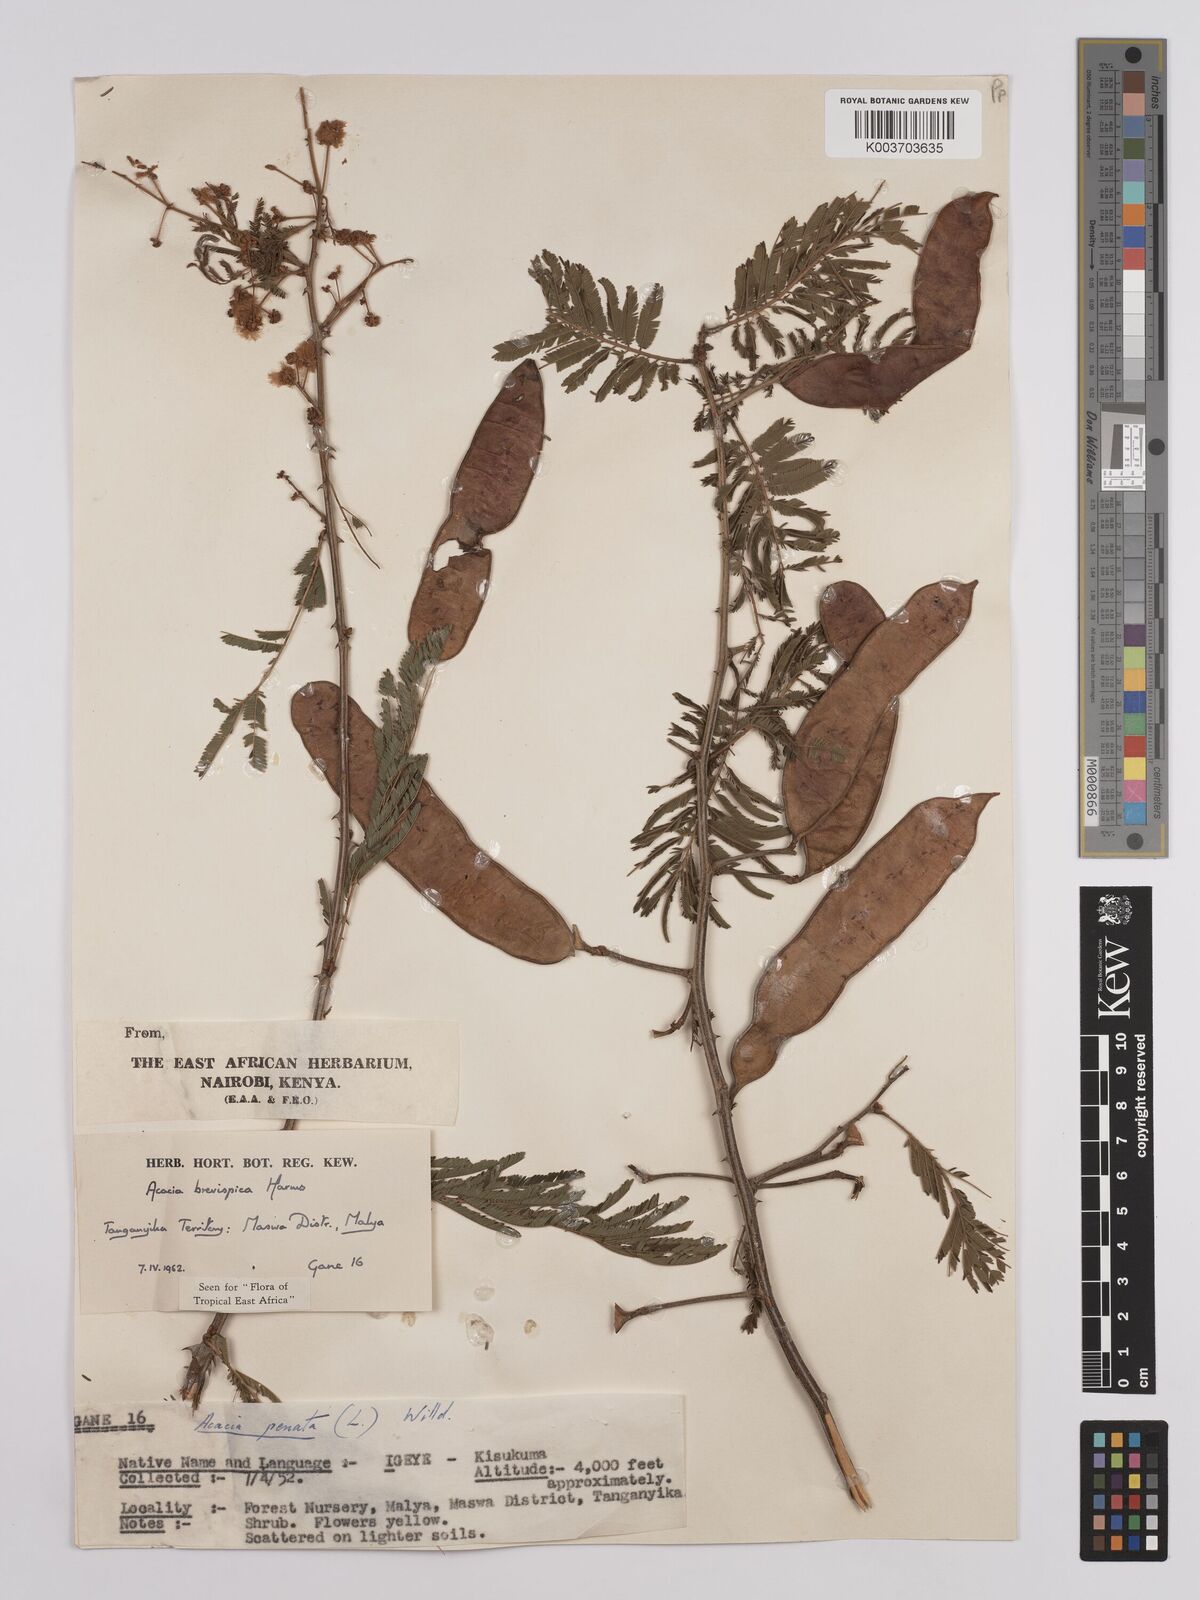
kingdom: Plantae
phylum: Tracheophyta
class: Magnoliopsida
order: Fabales
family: Fabaceae
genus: Senegalia
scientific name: Senegalia brevispica
